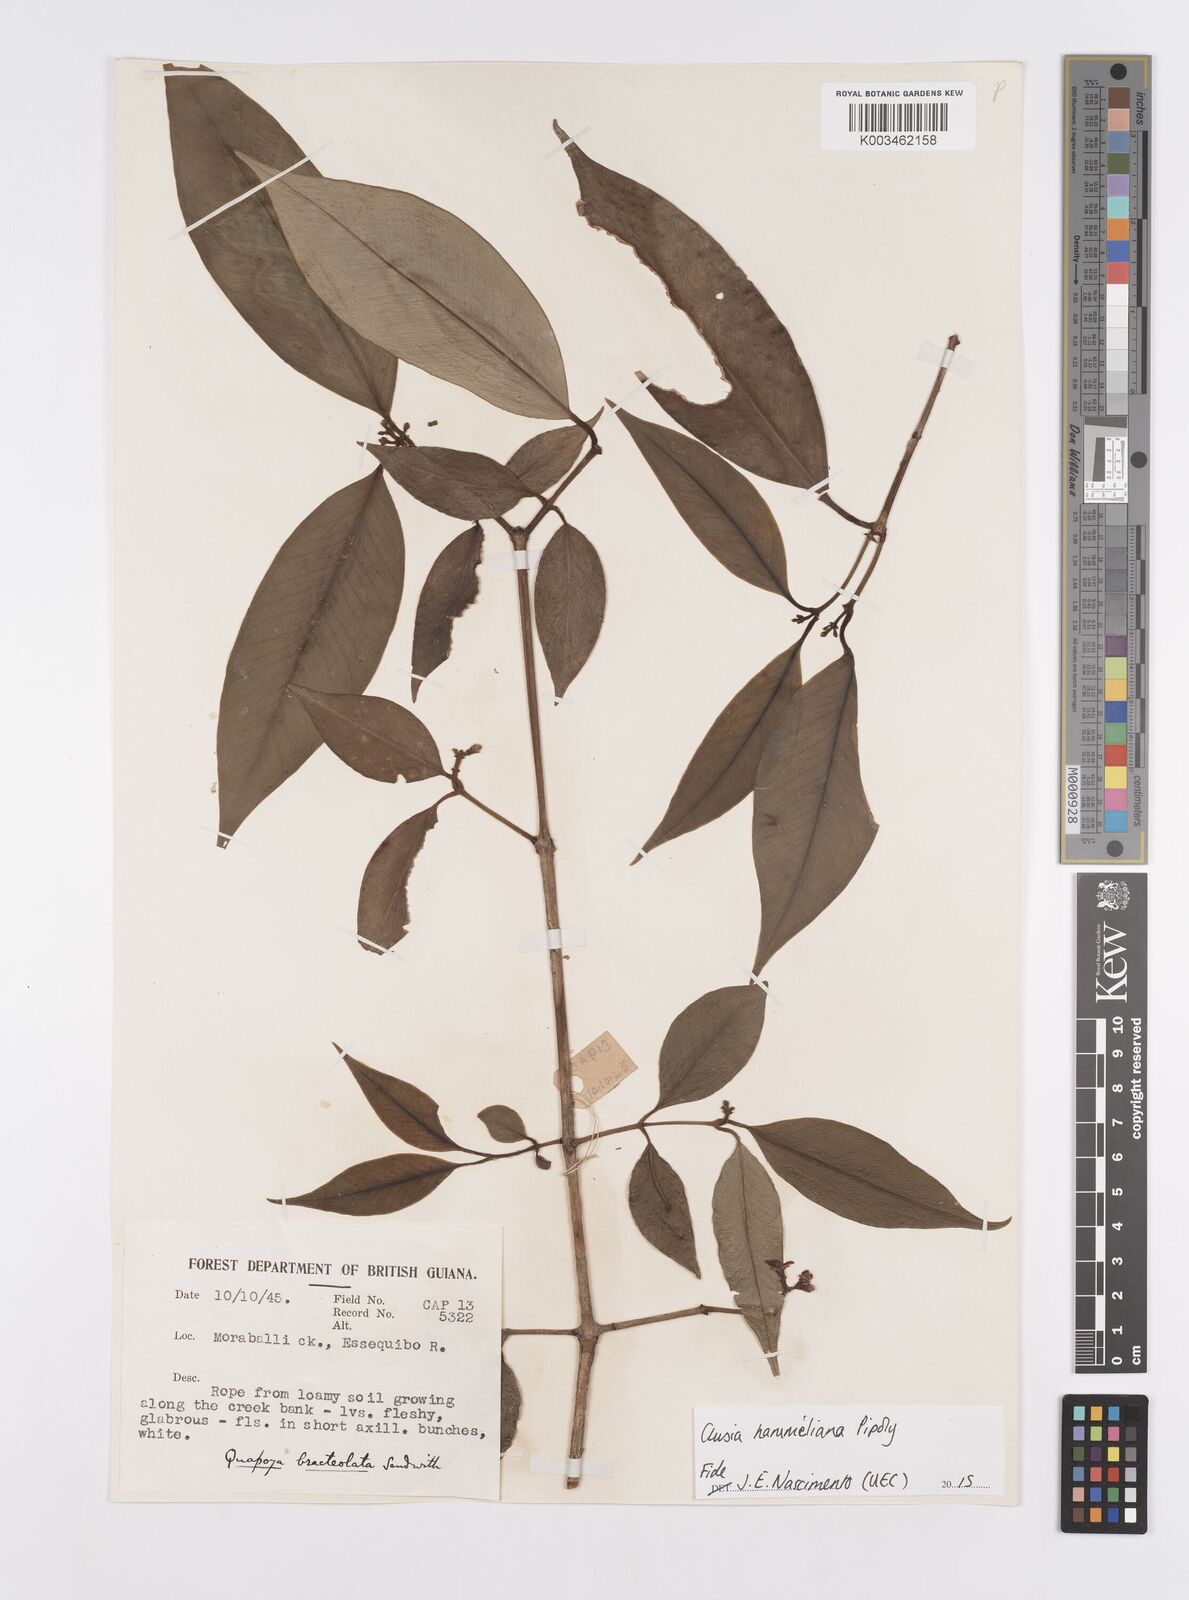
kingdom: Plantae
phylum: Tracheophyta
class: Magnoliopsida
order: Malpighiales
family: Clusiaceae
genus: Clusia
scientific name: Clusia hammeliana
